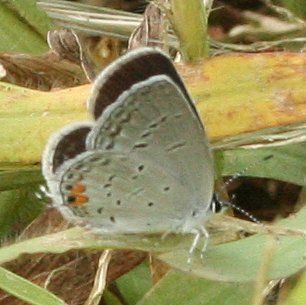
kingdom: Animalia
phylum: Arthropoda
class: Insecta
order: Lepidoptera
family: Lycaenidae
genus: Elkalyce
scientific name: Elkalyce comyntas
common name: Eastern Tailed-Blue
